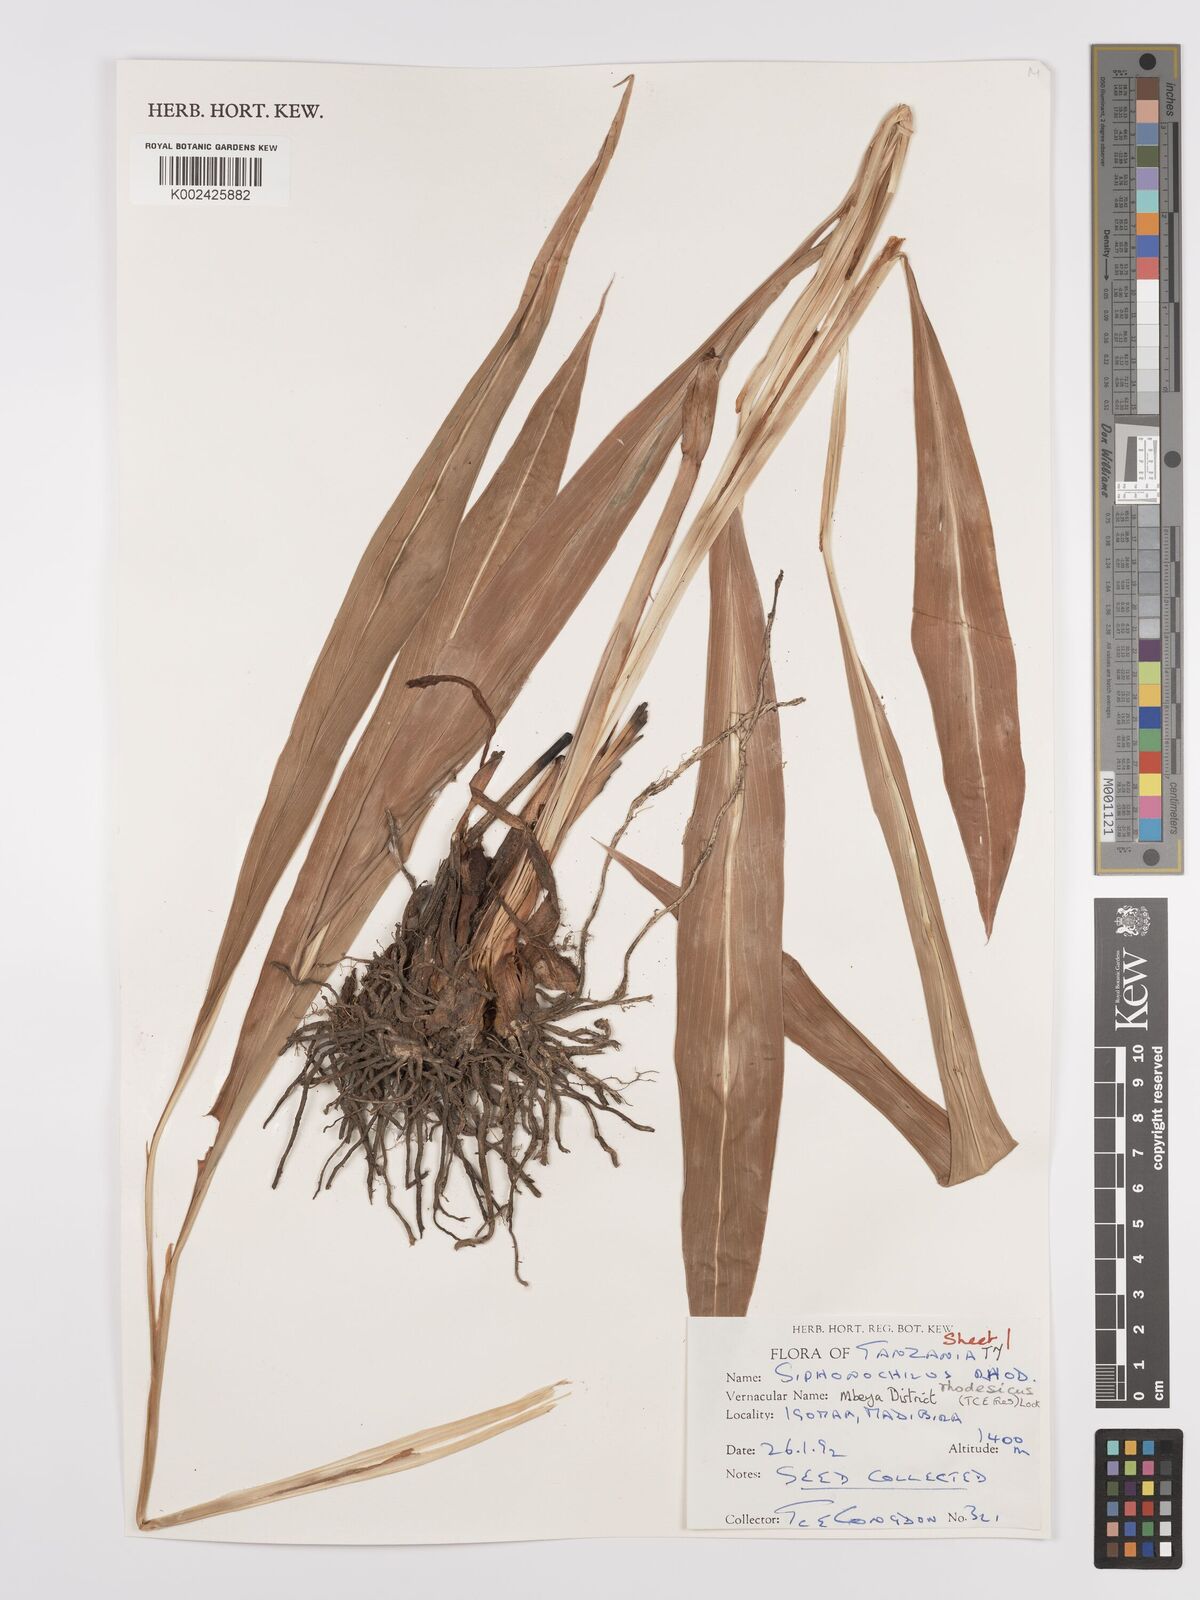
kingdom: Plantae
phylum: Tracheophyta
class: Liliopsida
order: Zingiberales
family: Zingiberaceae
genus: Siphonochilus
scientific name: Siphonochilus rhodesicus
